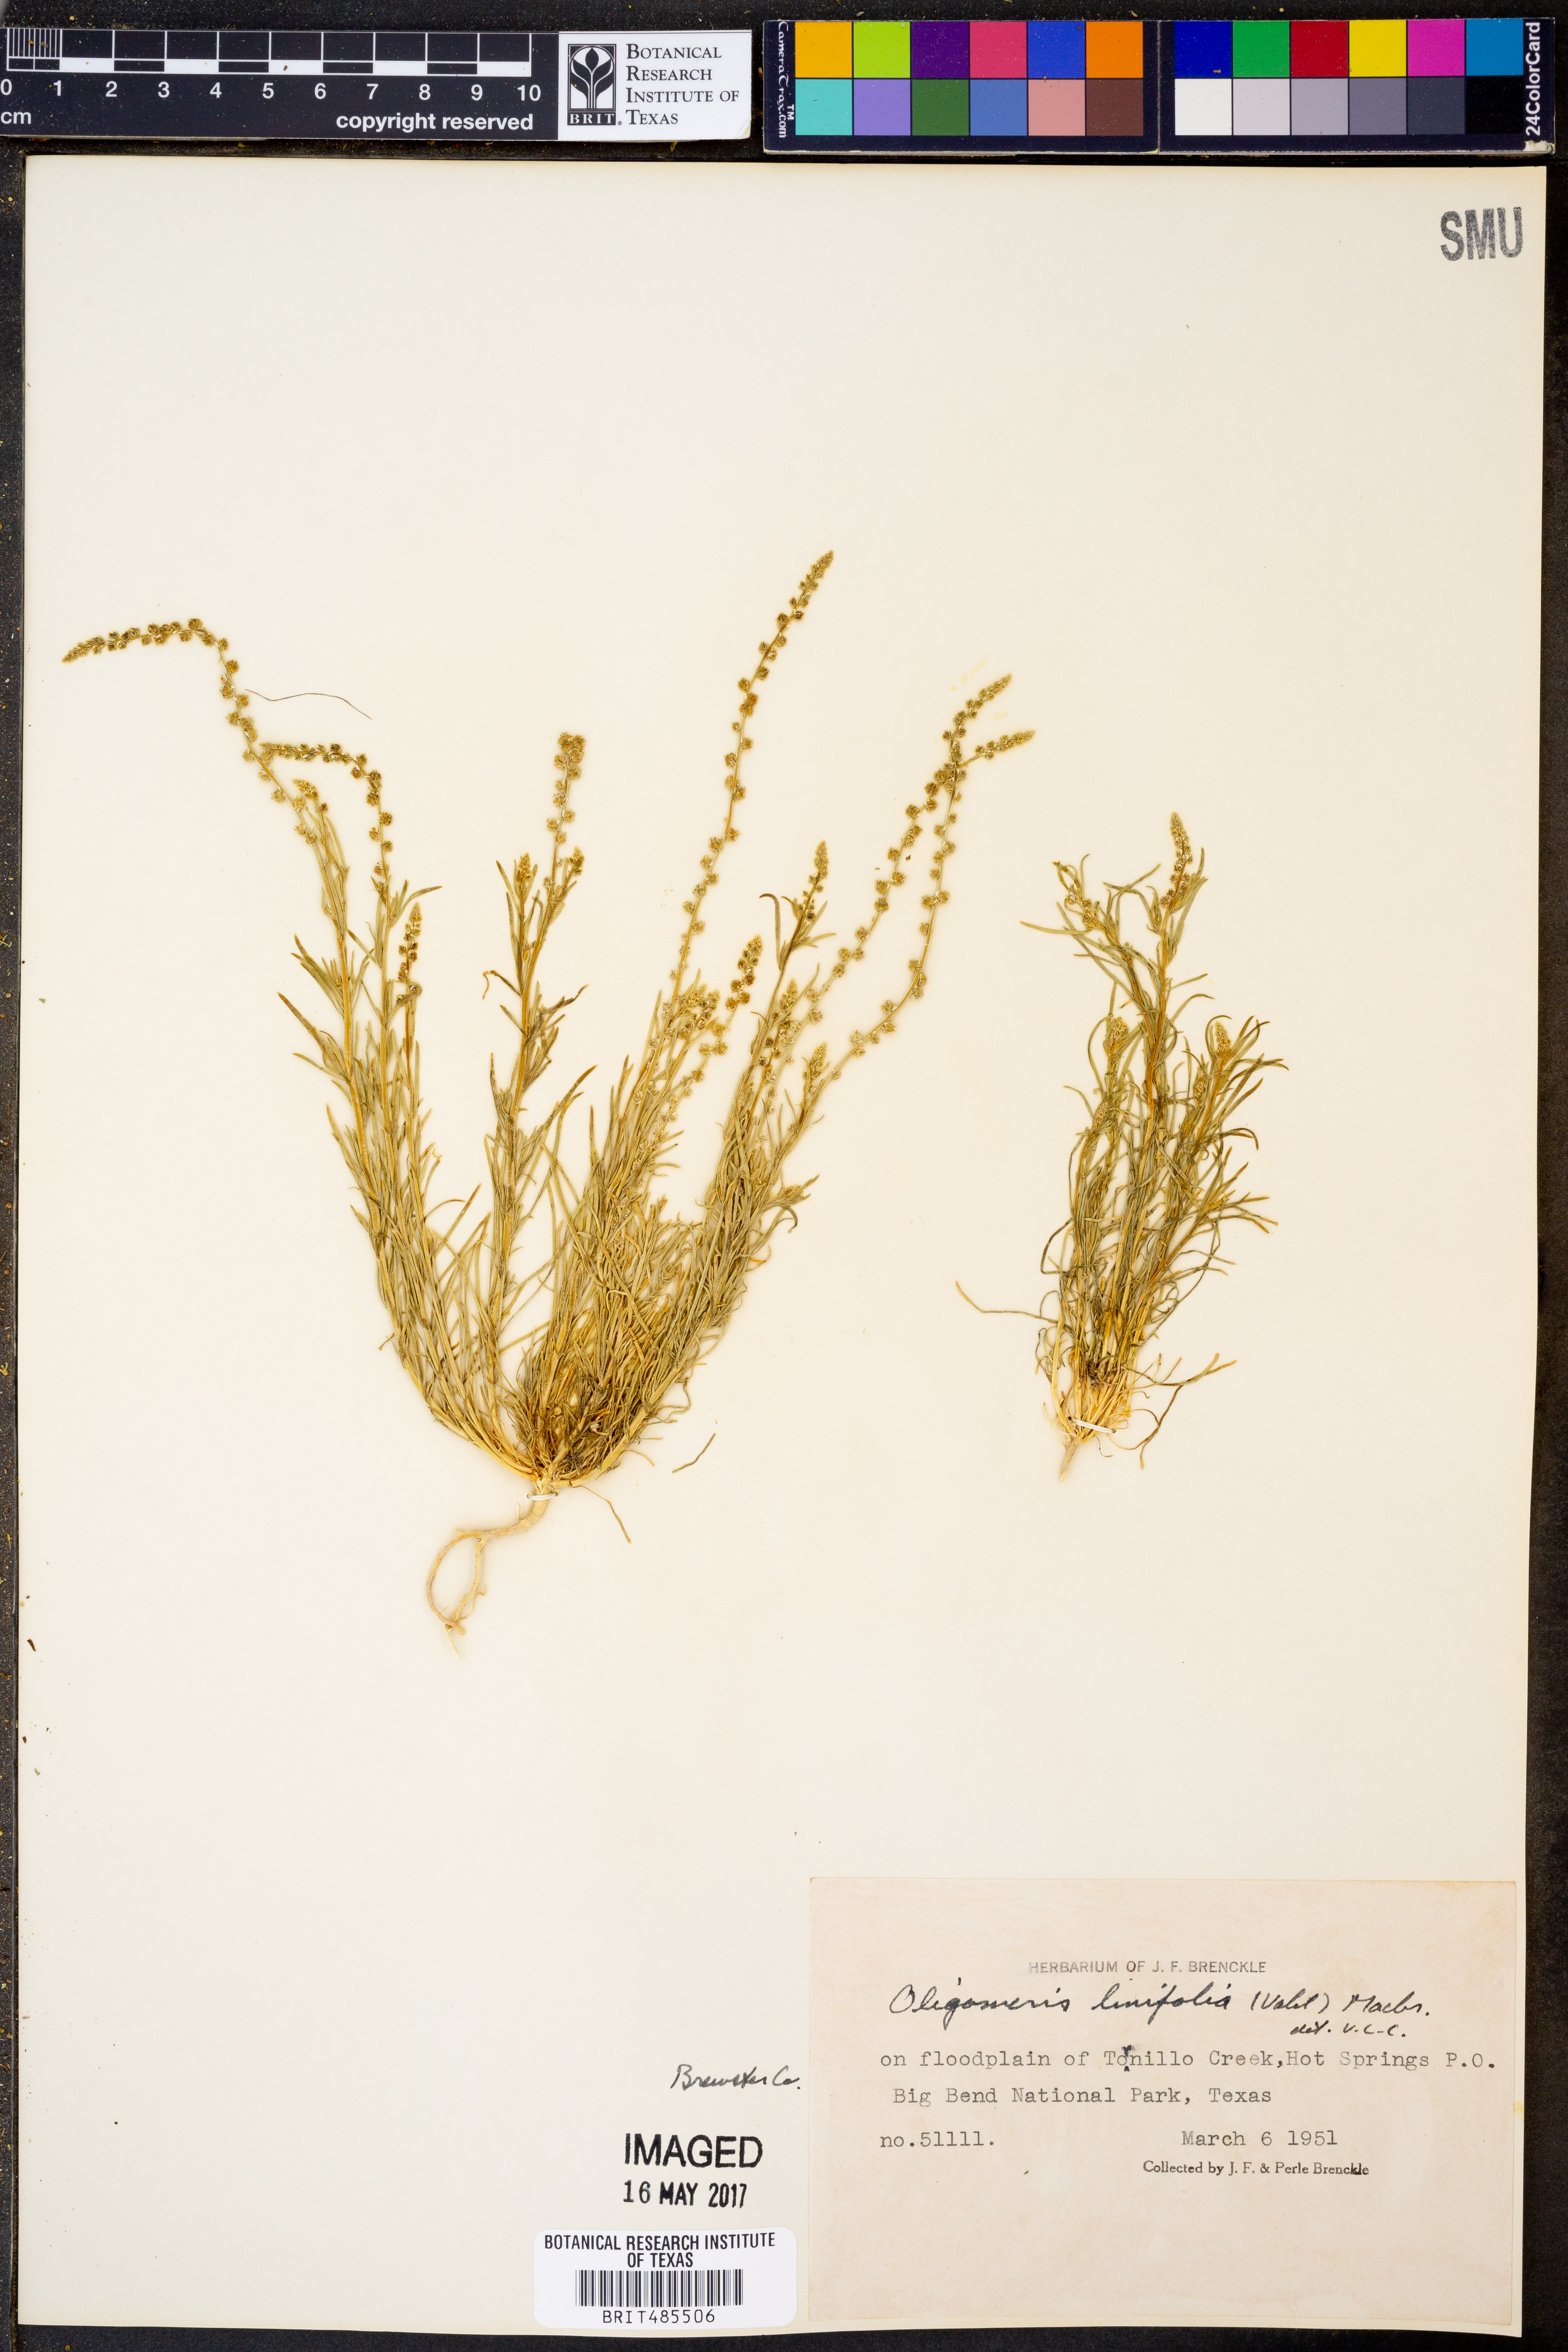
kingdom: Plantae
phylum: Tracheophyta
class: Magnoliopsida
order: Brassicales
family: Resedaceae
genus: Oligomeris
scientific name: Oligomeris linifolia
